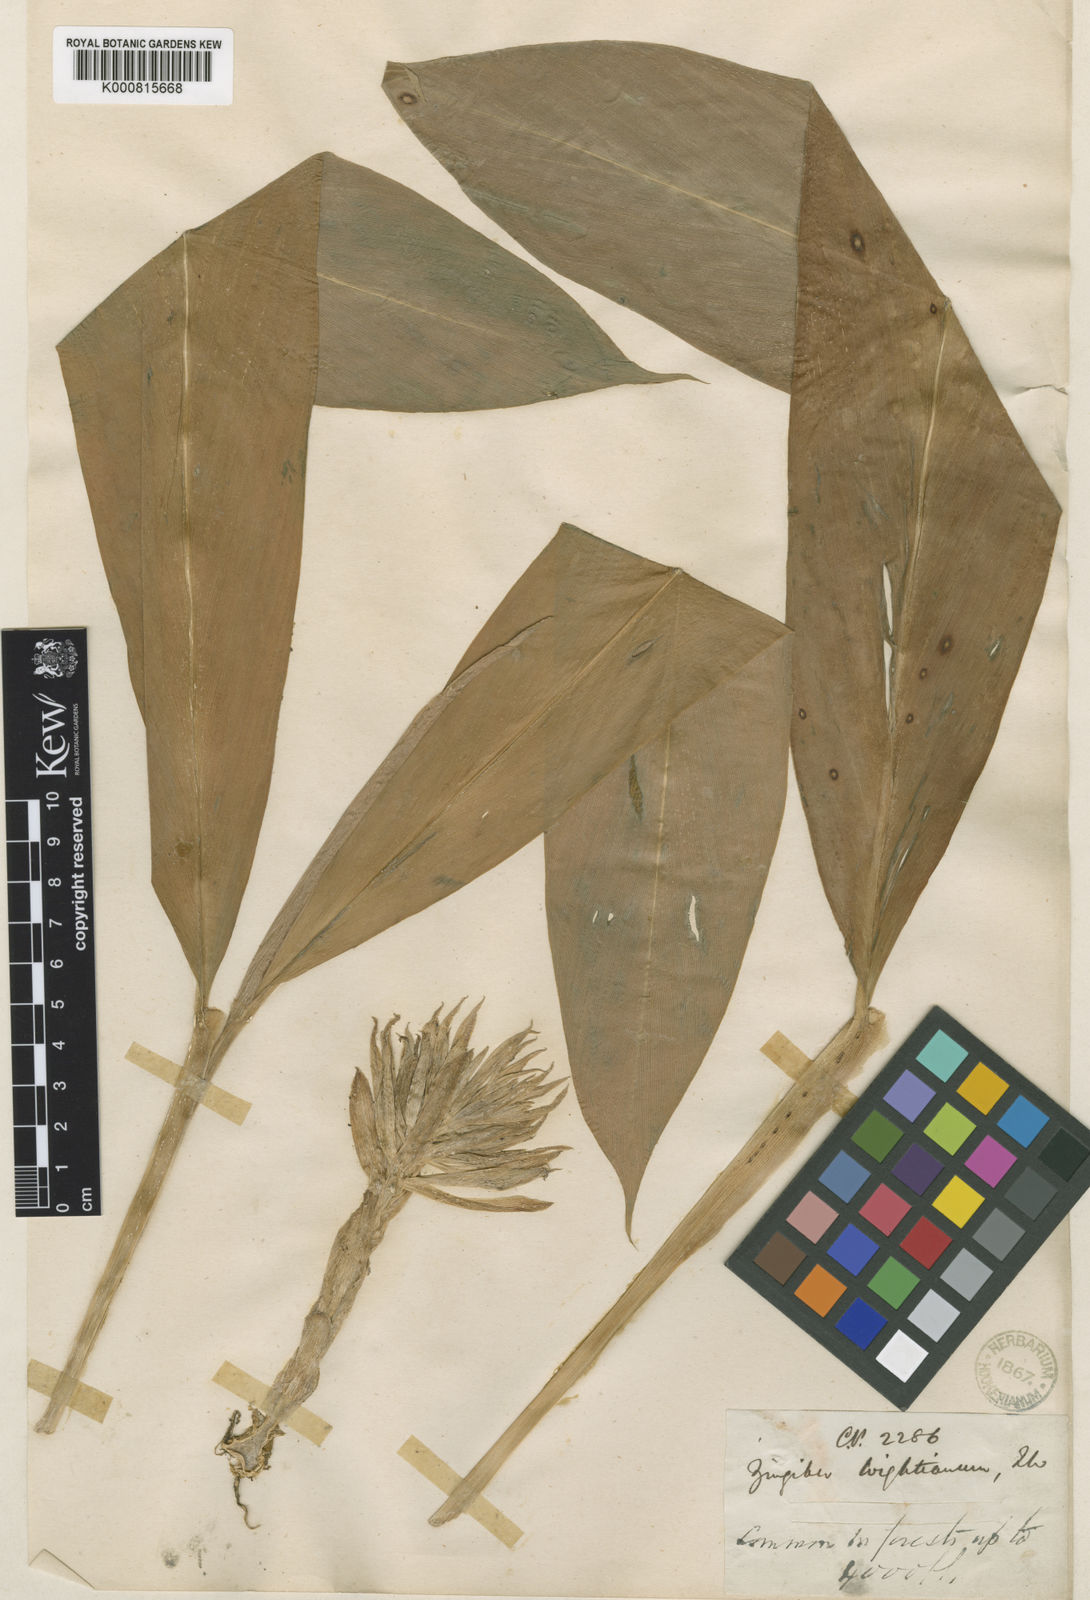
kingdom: Plantae
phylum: Tracheophyta
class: Liliopsida
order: Zingiberales
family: Zingiberaceae
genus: Zingiber
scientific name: Zingiber wightianum
